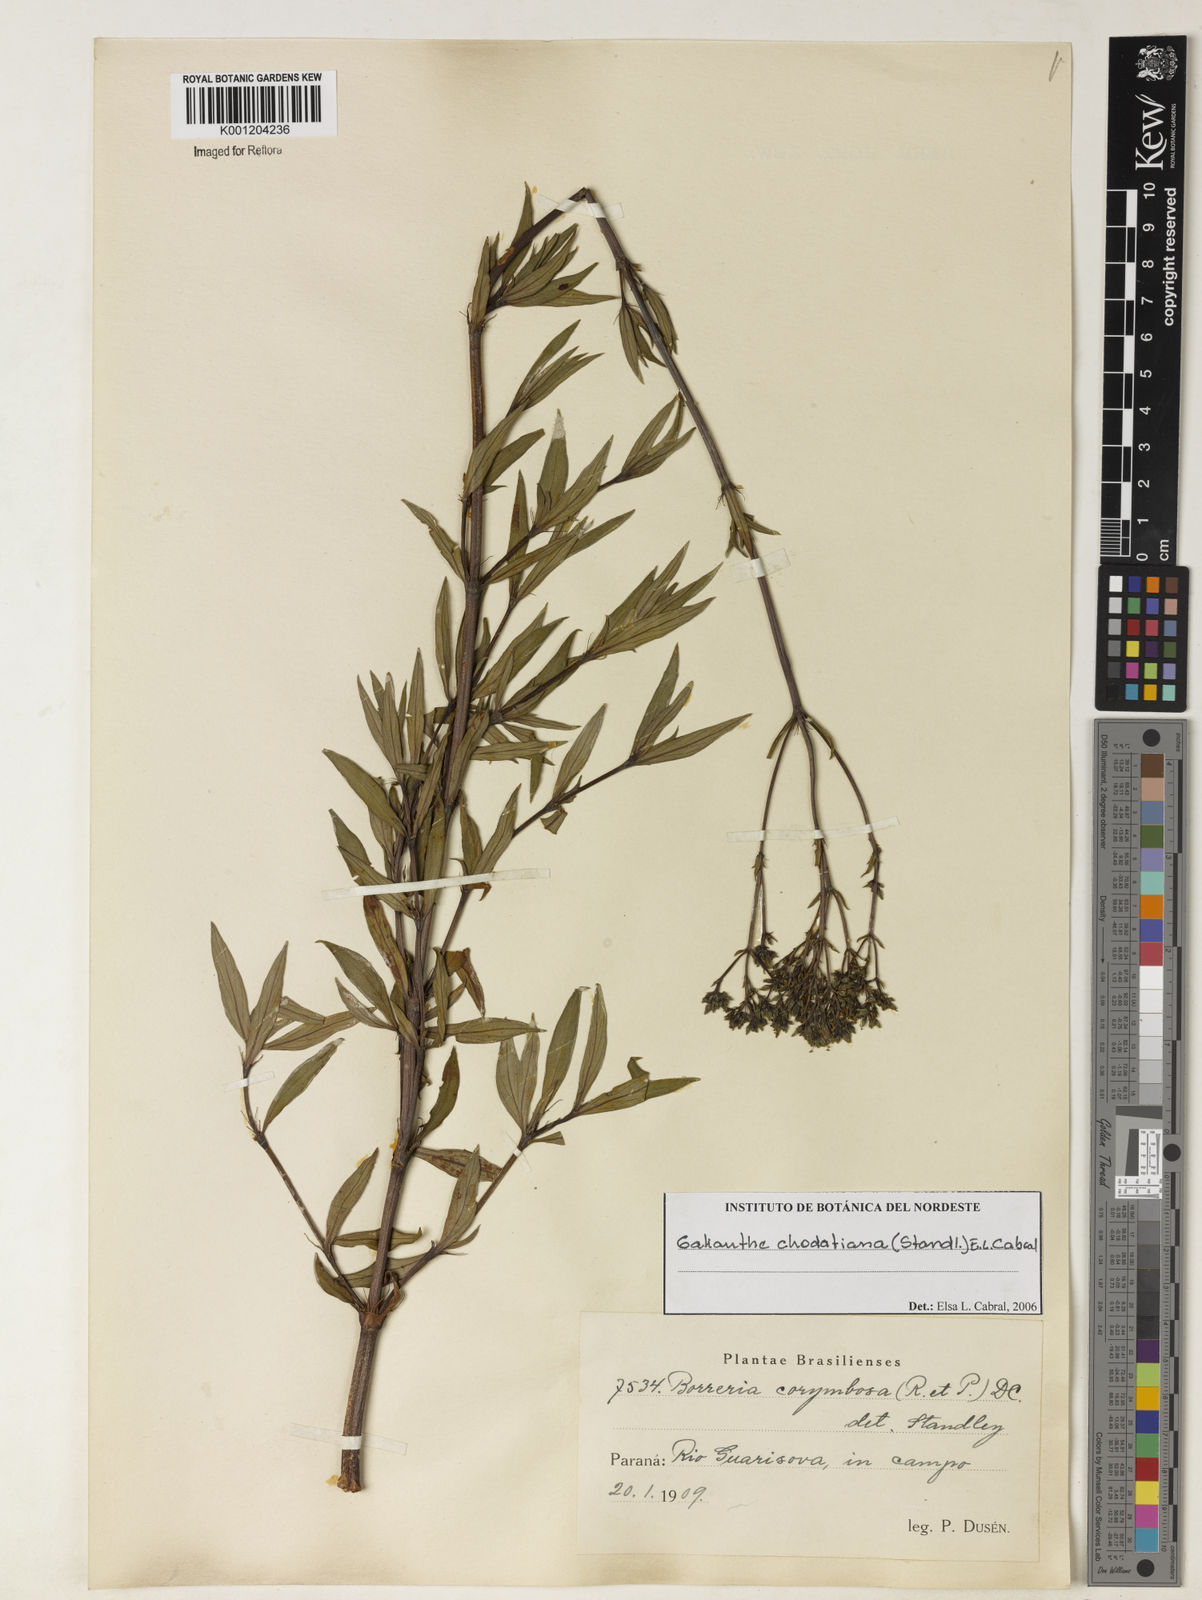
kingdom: Plantae
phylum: Tracheophyta
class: Magnoliopsida
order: Gentianales
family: Rubiaceae
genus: Galianthe
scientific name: Galianthe chodatiana
